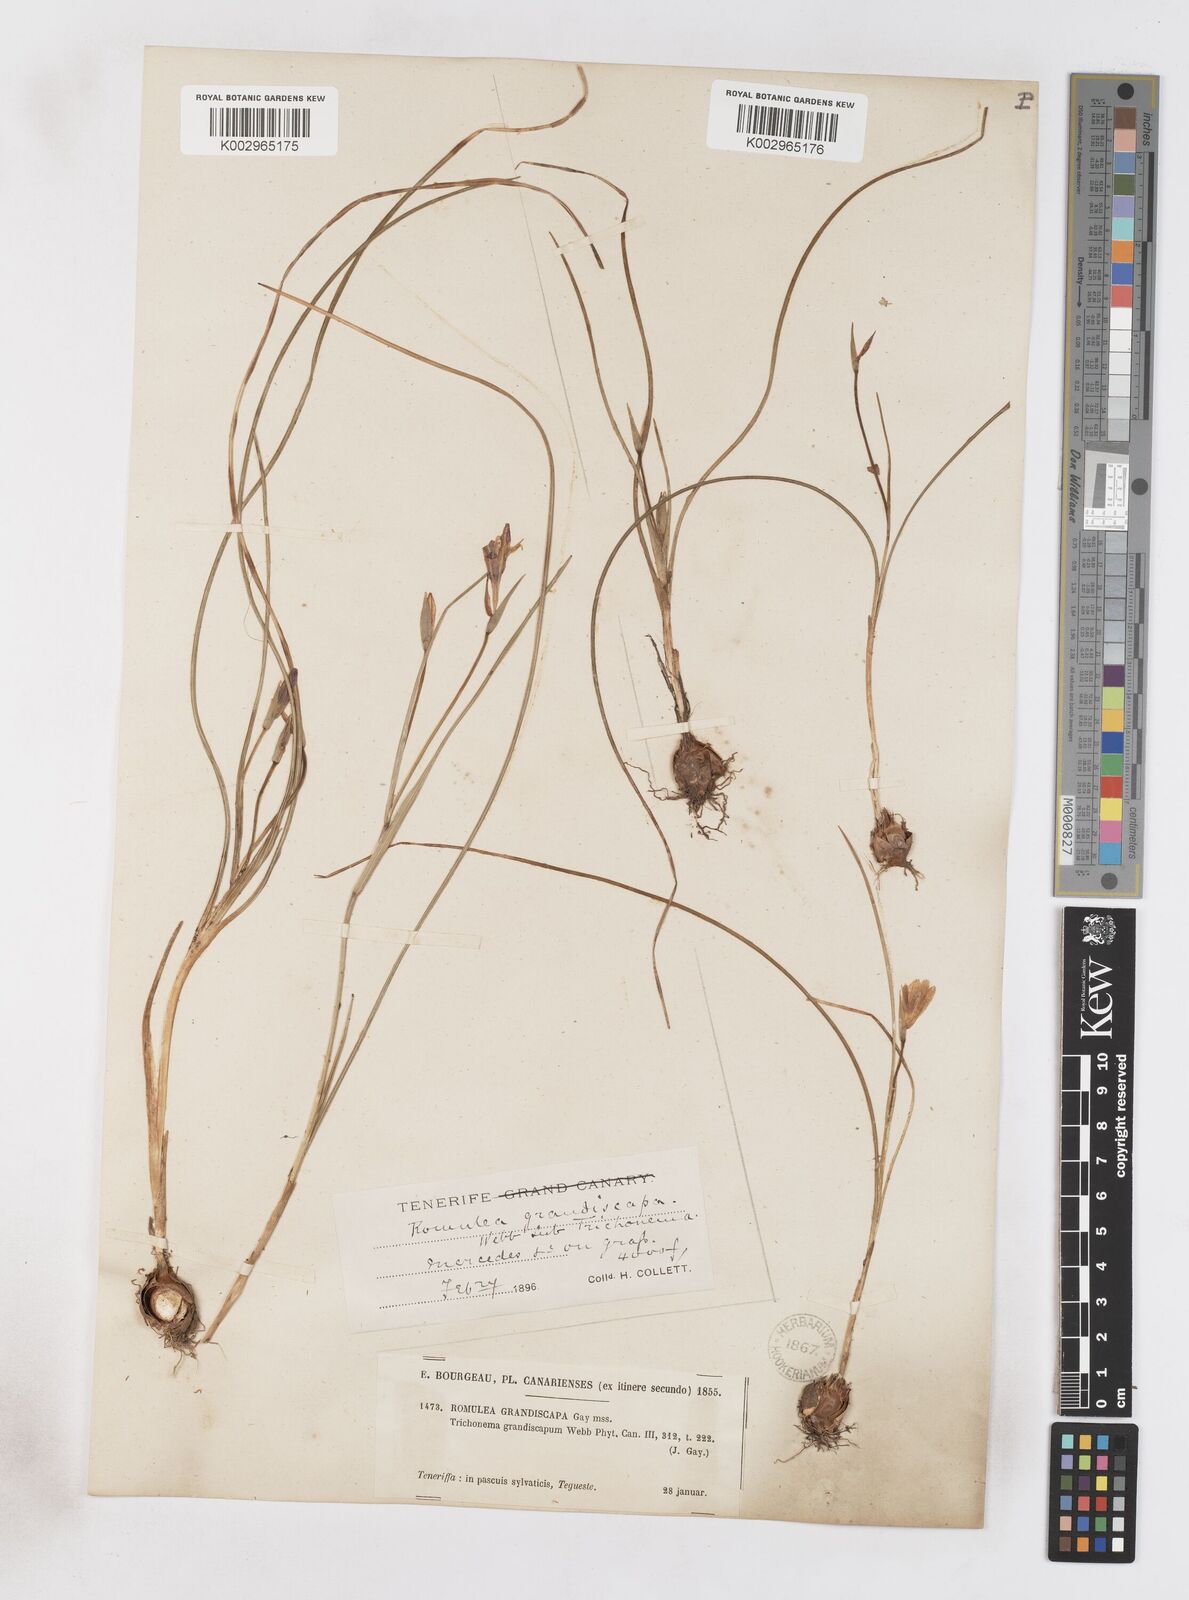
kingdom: Plantae
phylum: Tracheophyta
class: Liliopsida
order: Asparagales
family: Iridaceae
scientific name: Iridaceae
